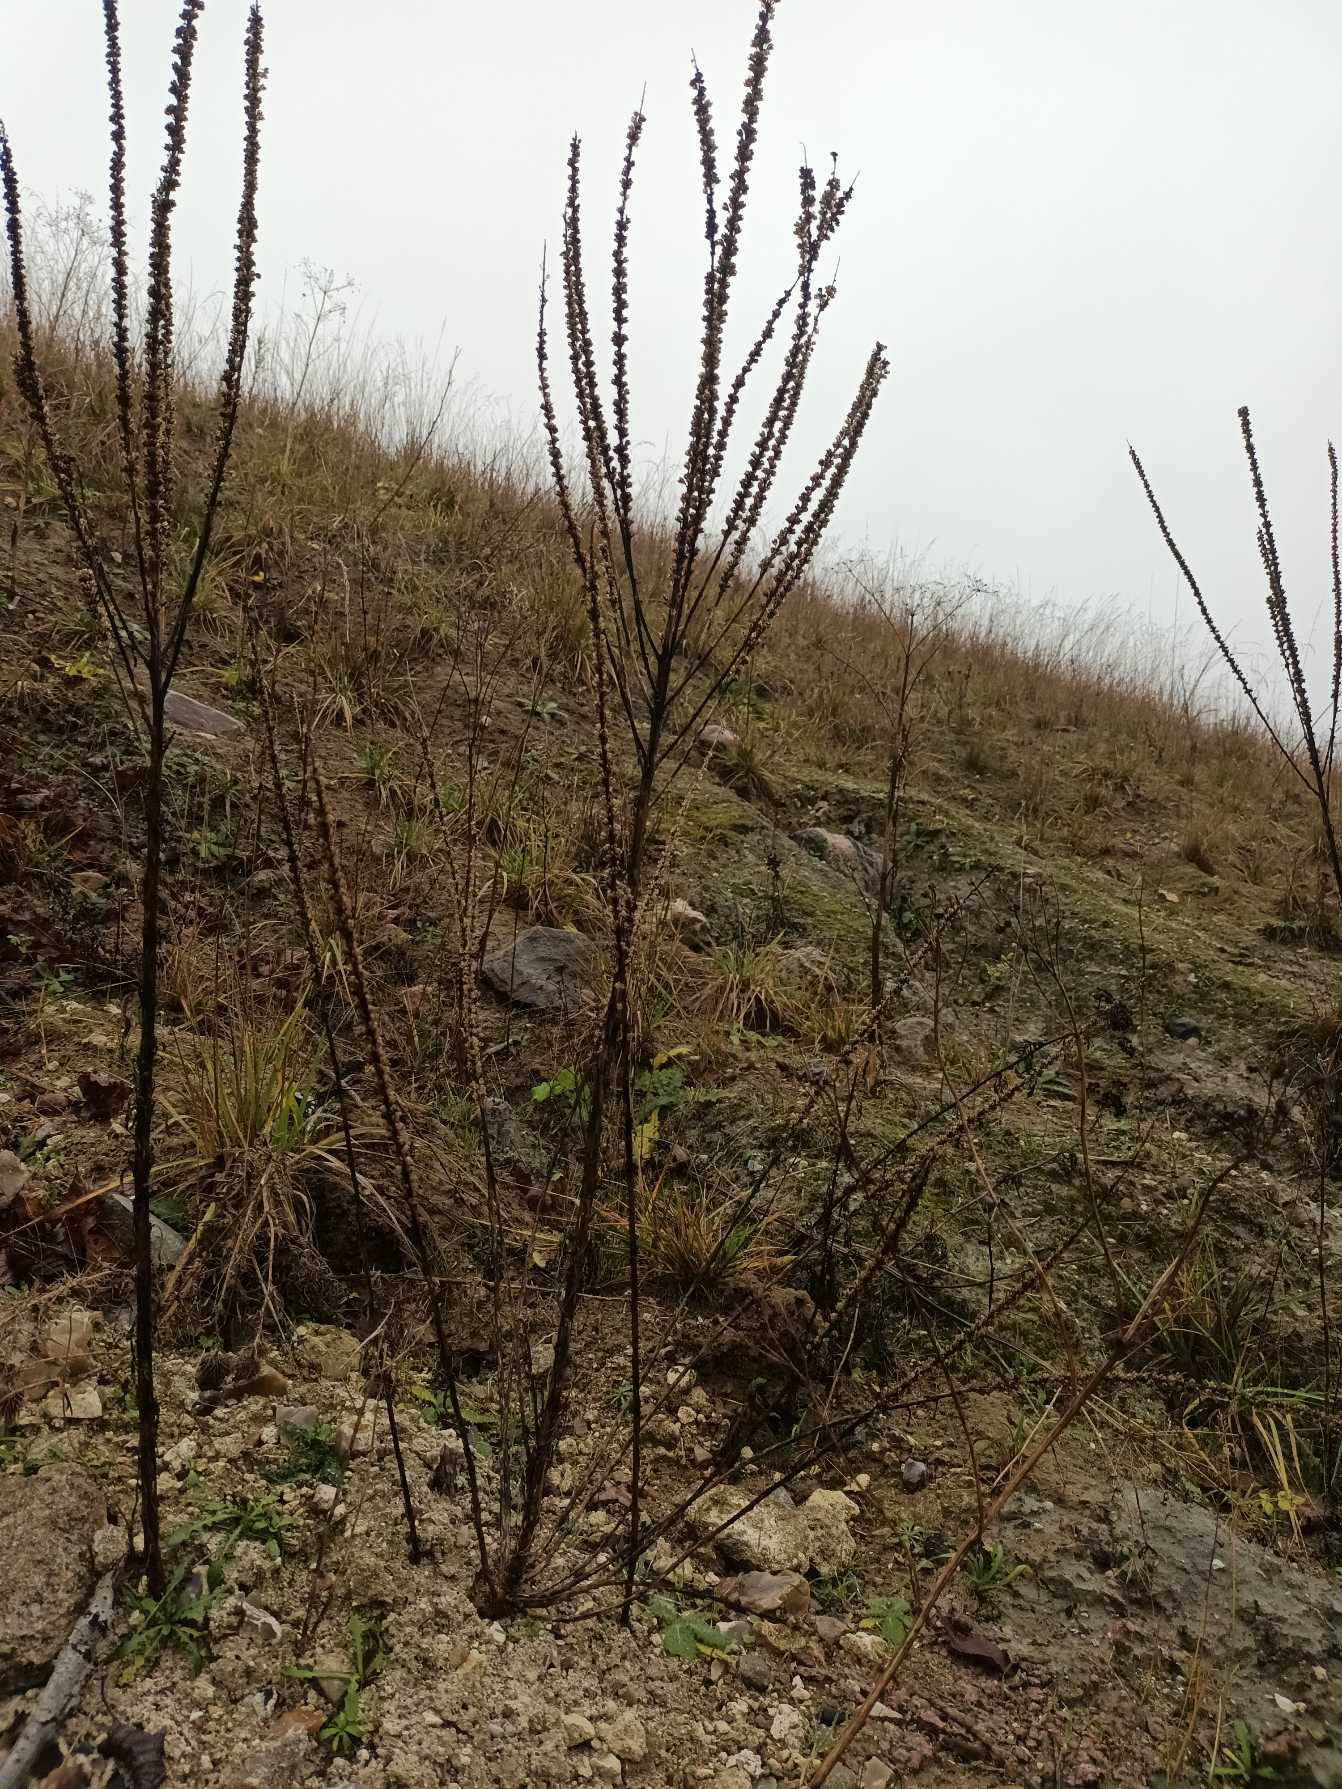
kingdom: Plantae
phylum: Tracheophyta
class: Magnoliopsida
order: Brassicales
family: Resedaceae
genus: Reseda
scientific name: Reseda luteola
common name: Farve-reseda
